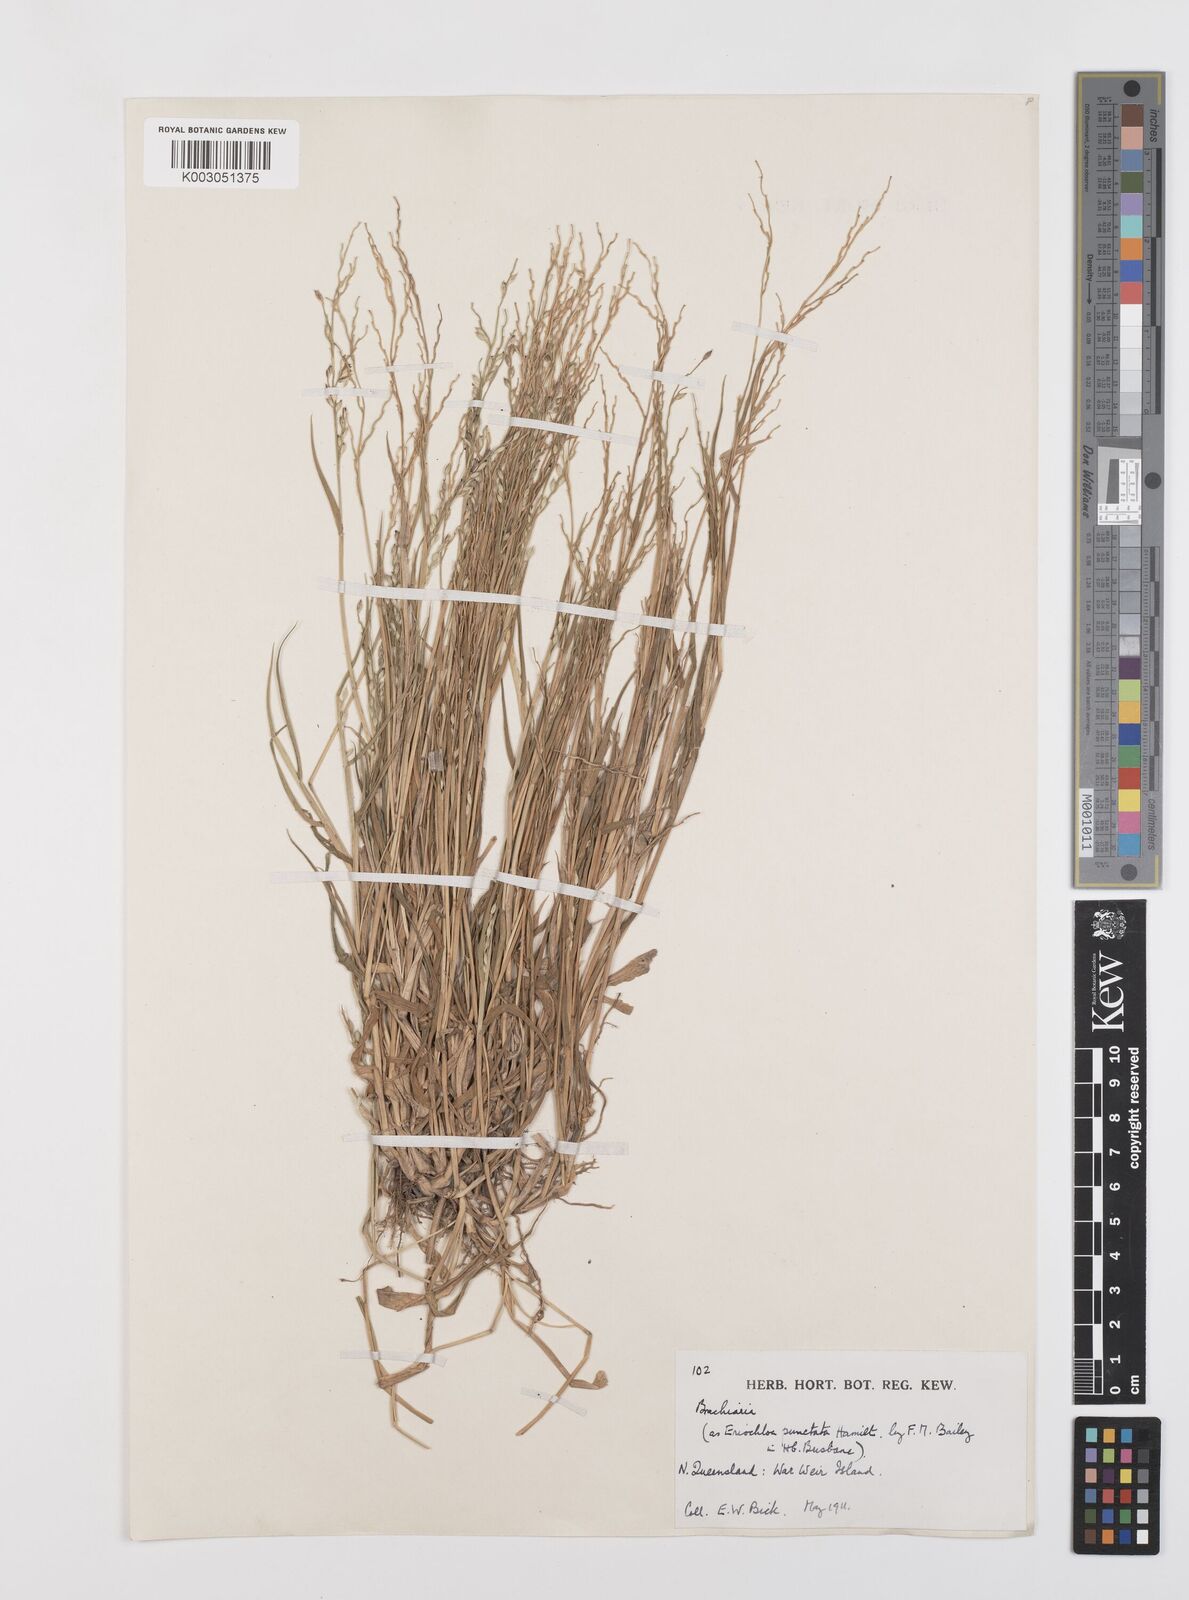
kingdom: Plantae
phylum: Tracheophyta
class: Liliopsida
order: Poales
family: Poaceae
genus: Brachiaria
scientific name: Brachiaria
